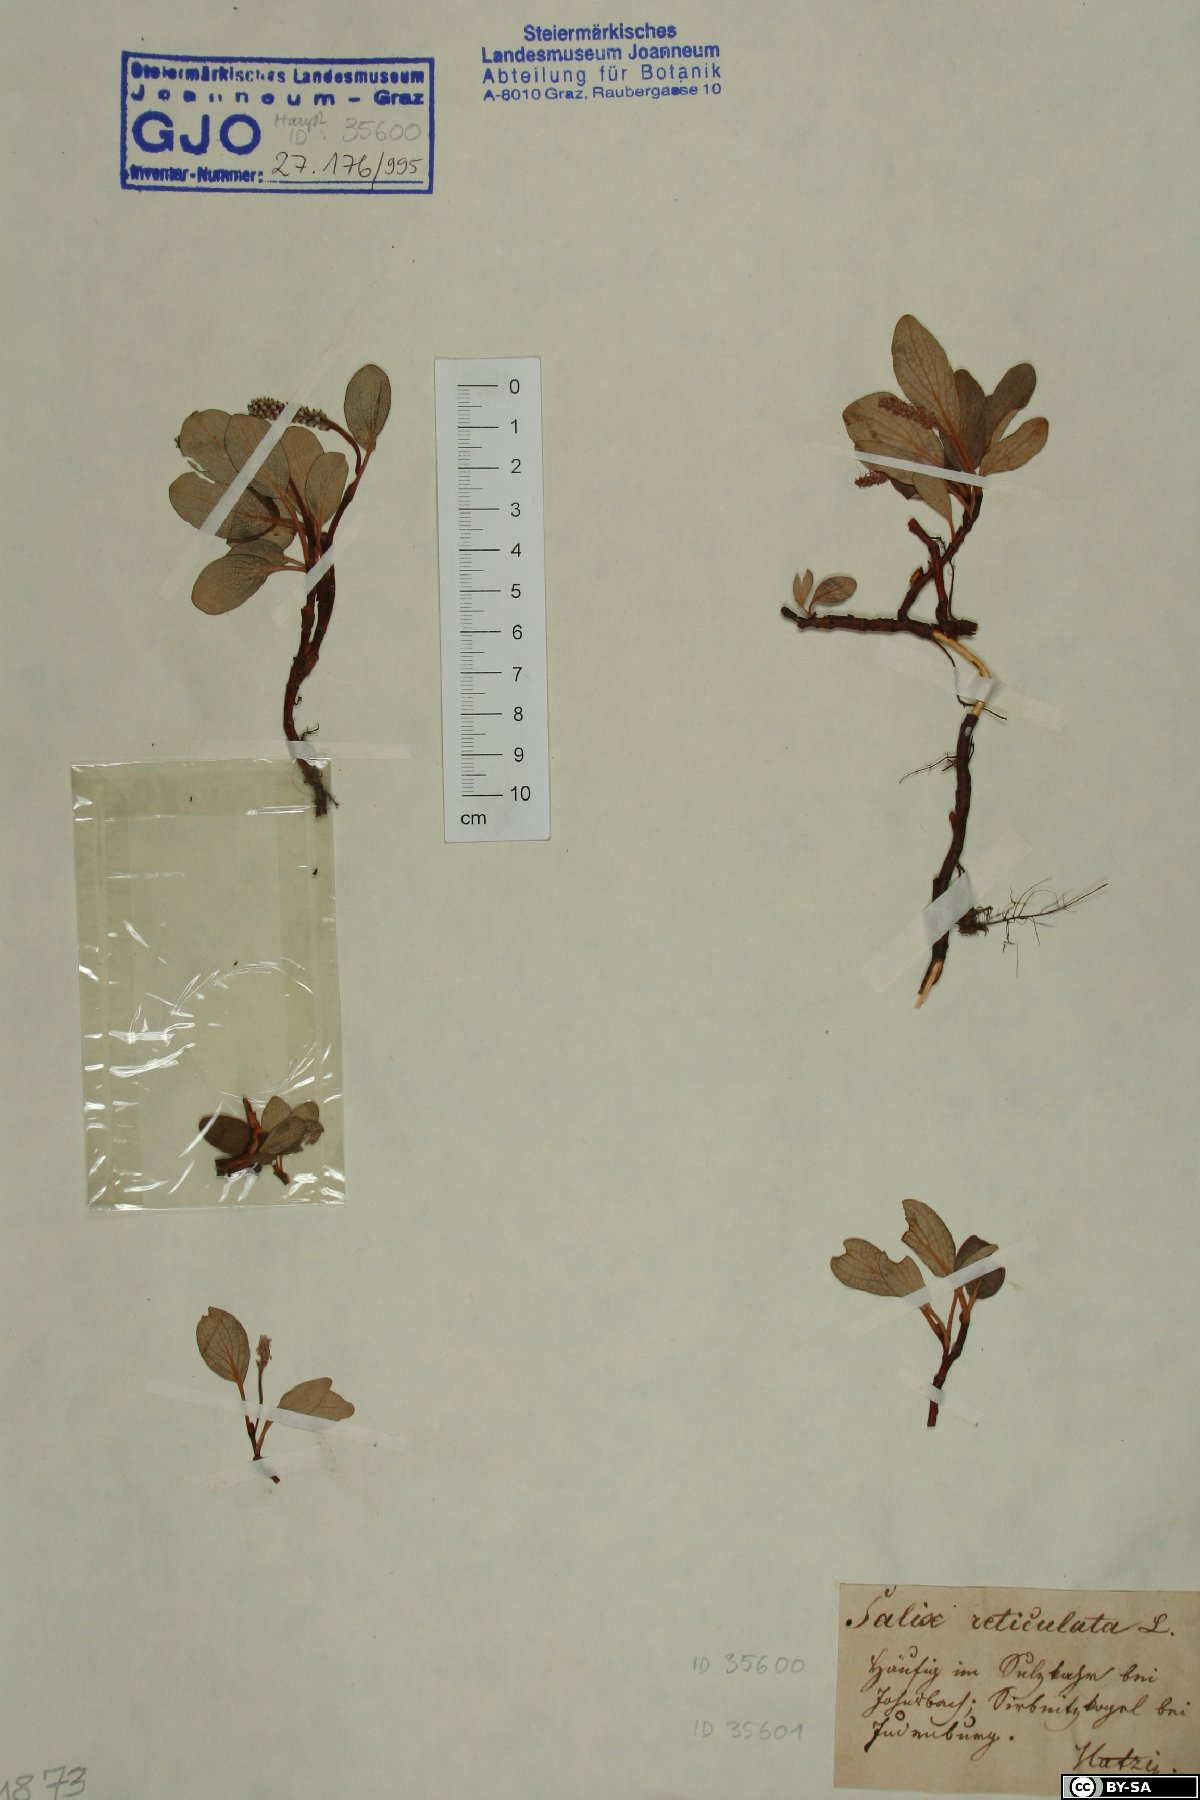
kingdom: Plantae
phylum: Tracheophyta
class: Magnoliopsida
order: Malpighiales
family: Salicaceae
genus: Salix
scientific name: Salix reticulata
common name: Net-leaved willow
